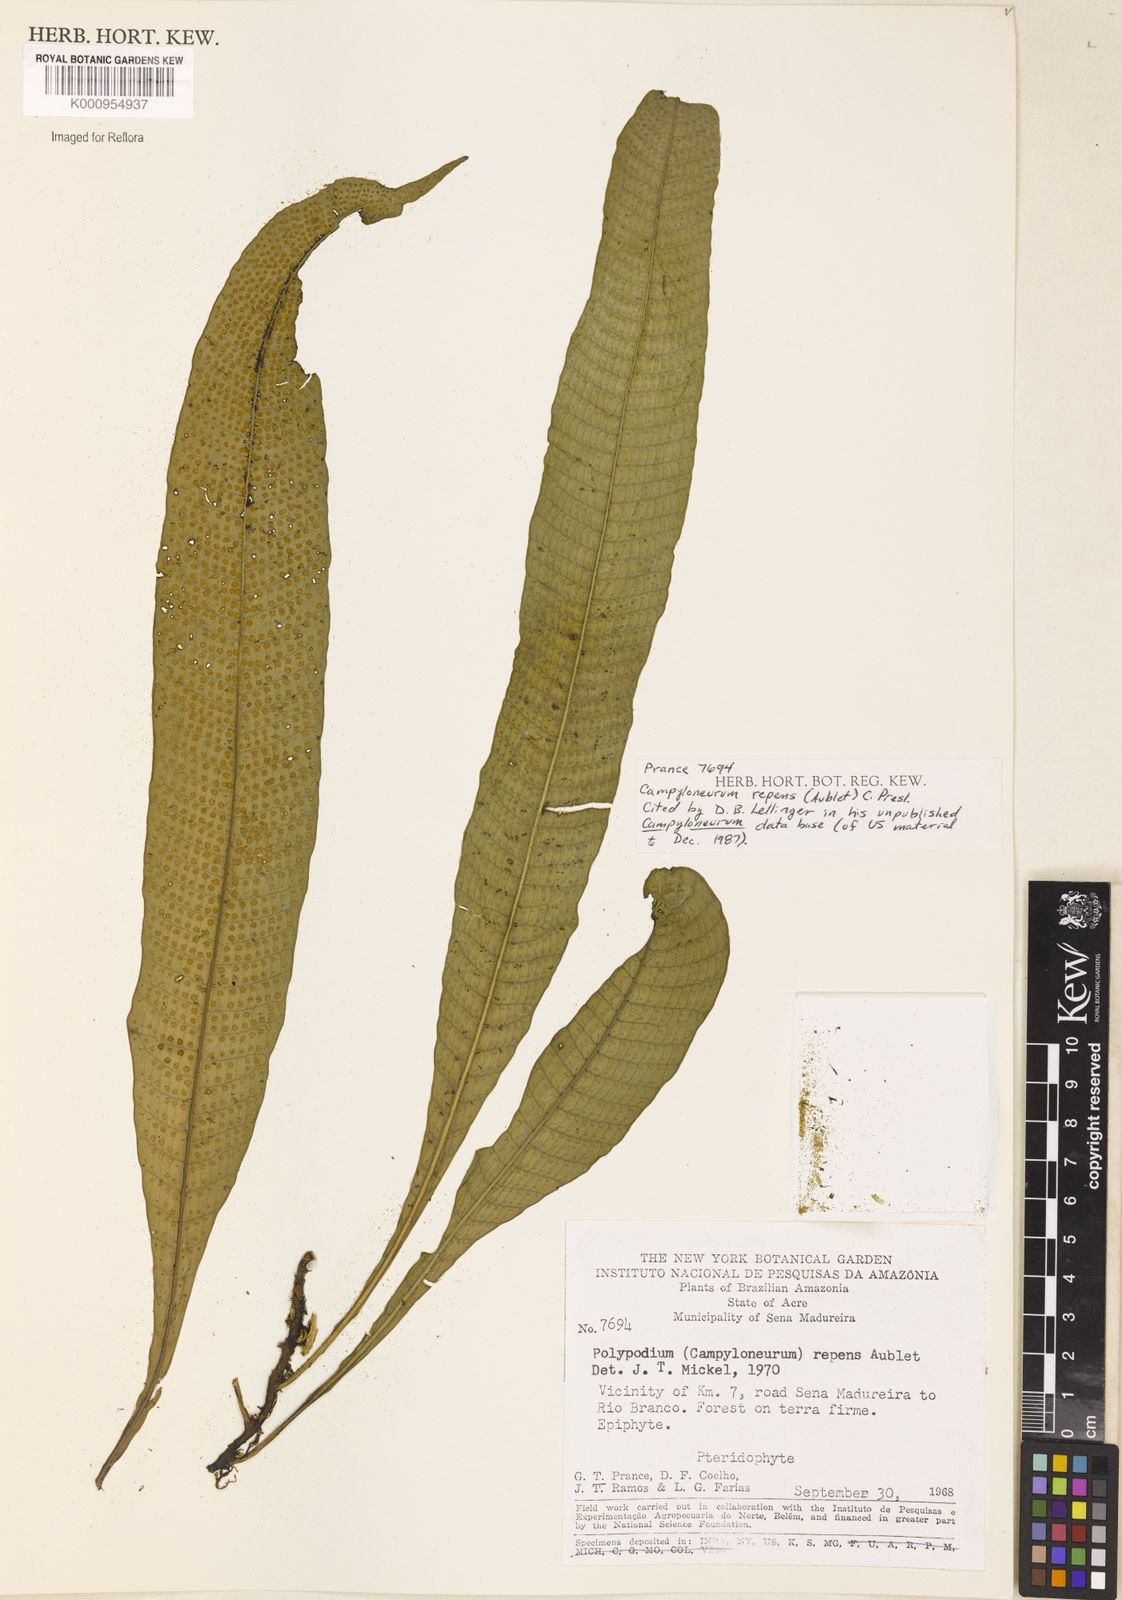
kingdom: Plantae
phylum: Tracheophyta
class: Polypodiopsida
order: Polypodiales
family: Polypodiaceae
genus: Campyloneurum
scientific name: Campyloneurum repens
